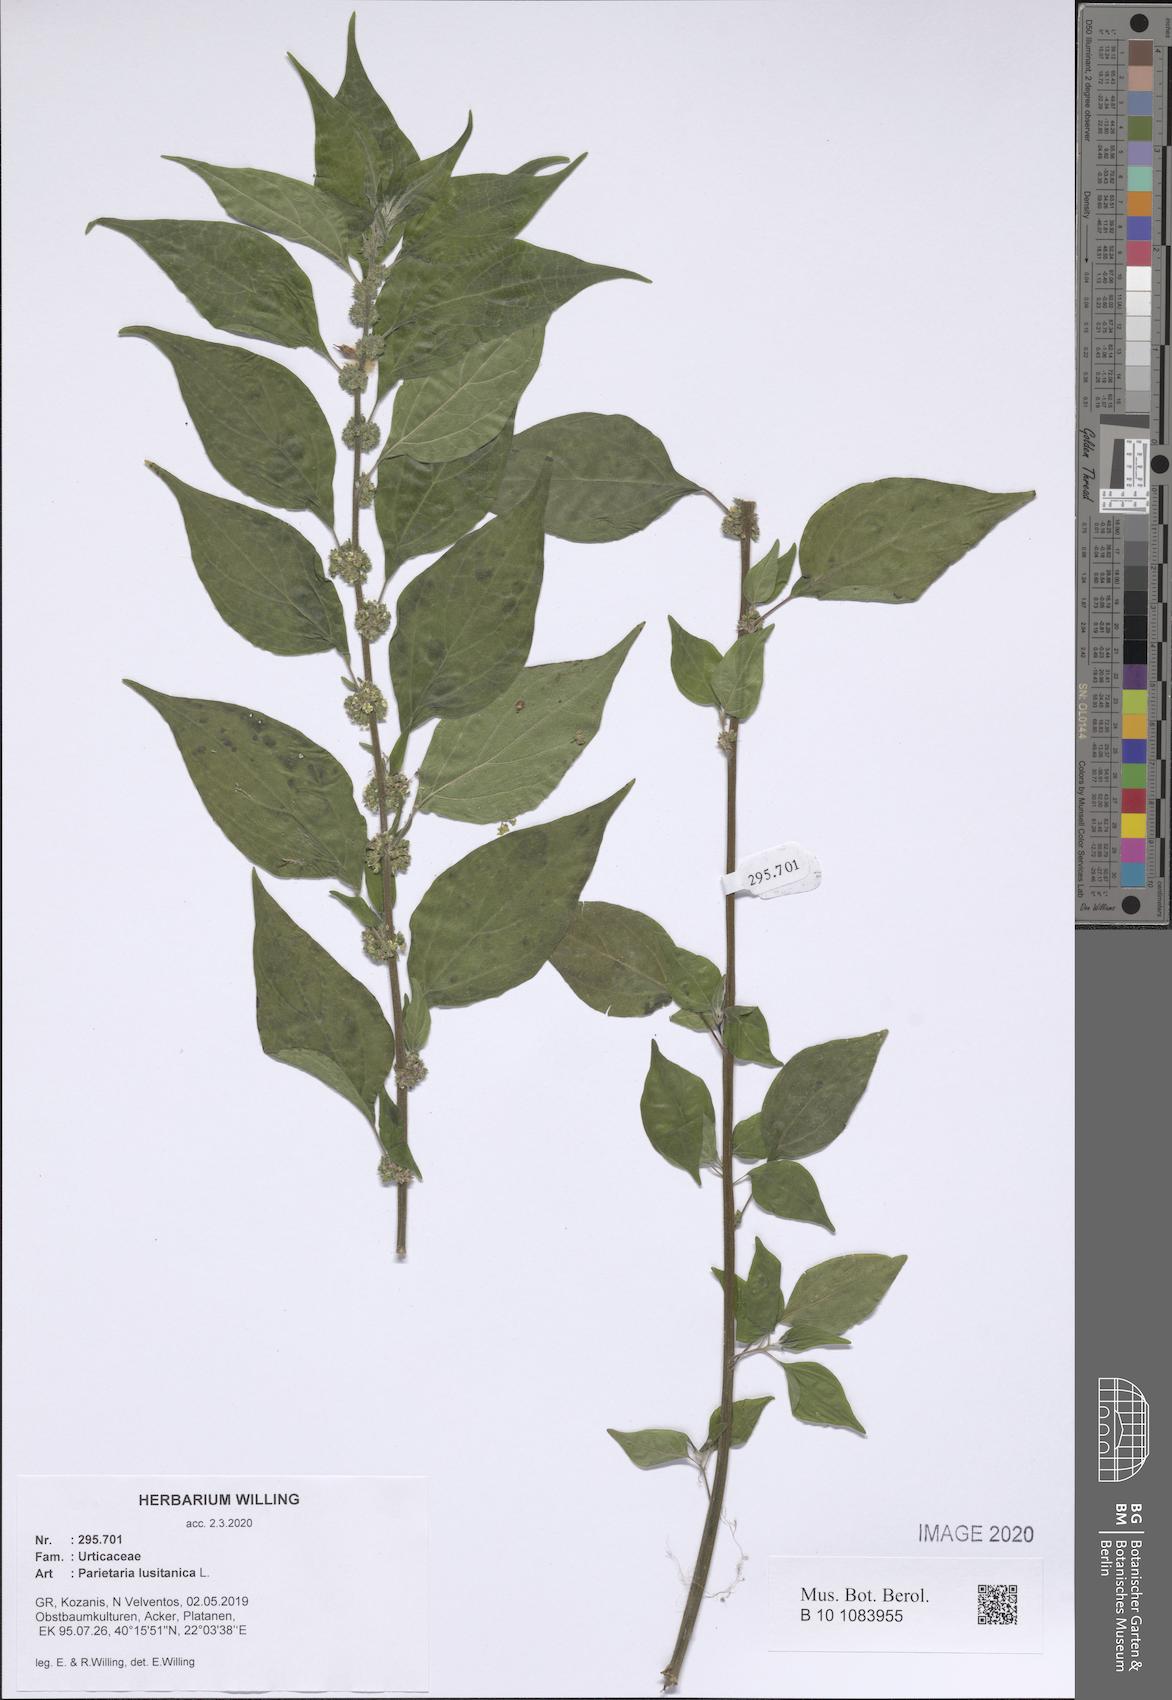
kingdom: Plantae
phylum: Tracheophyta
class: Magnoliopsida
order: Rosales
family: Urticaceae
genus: Parietaria
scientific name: Parietaria lusitanica
